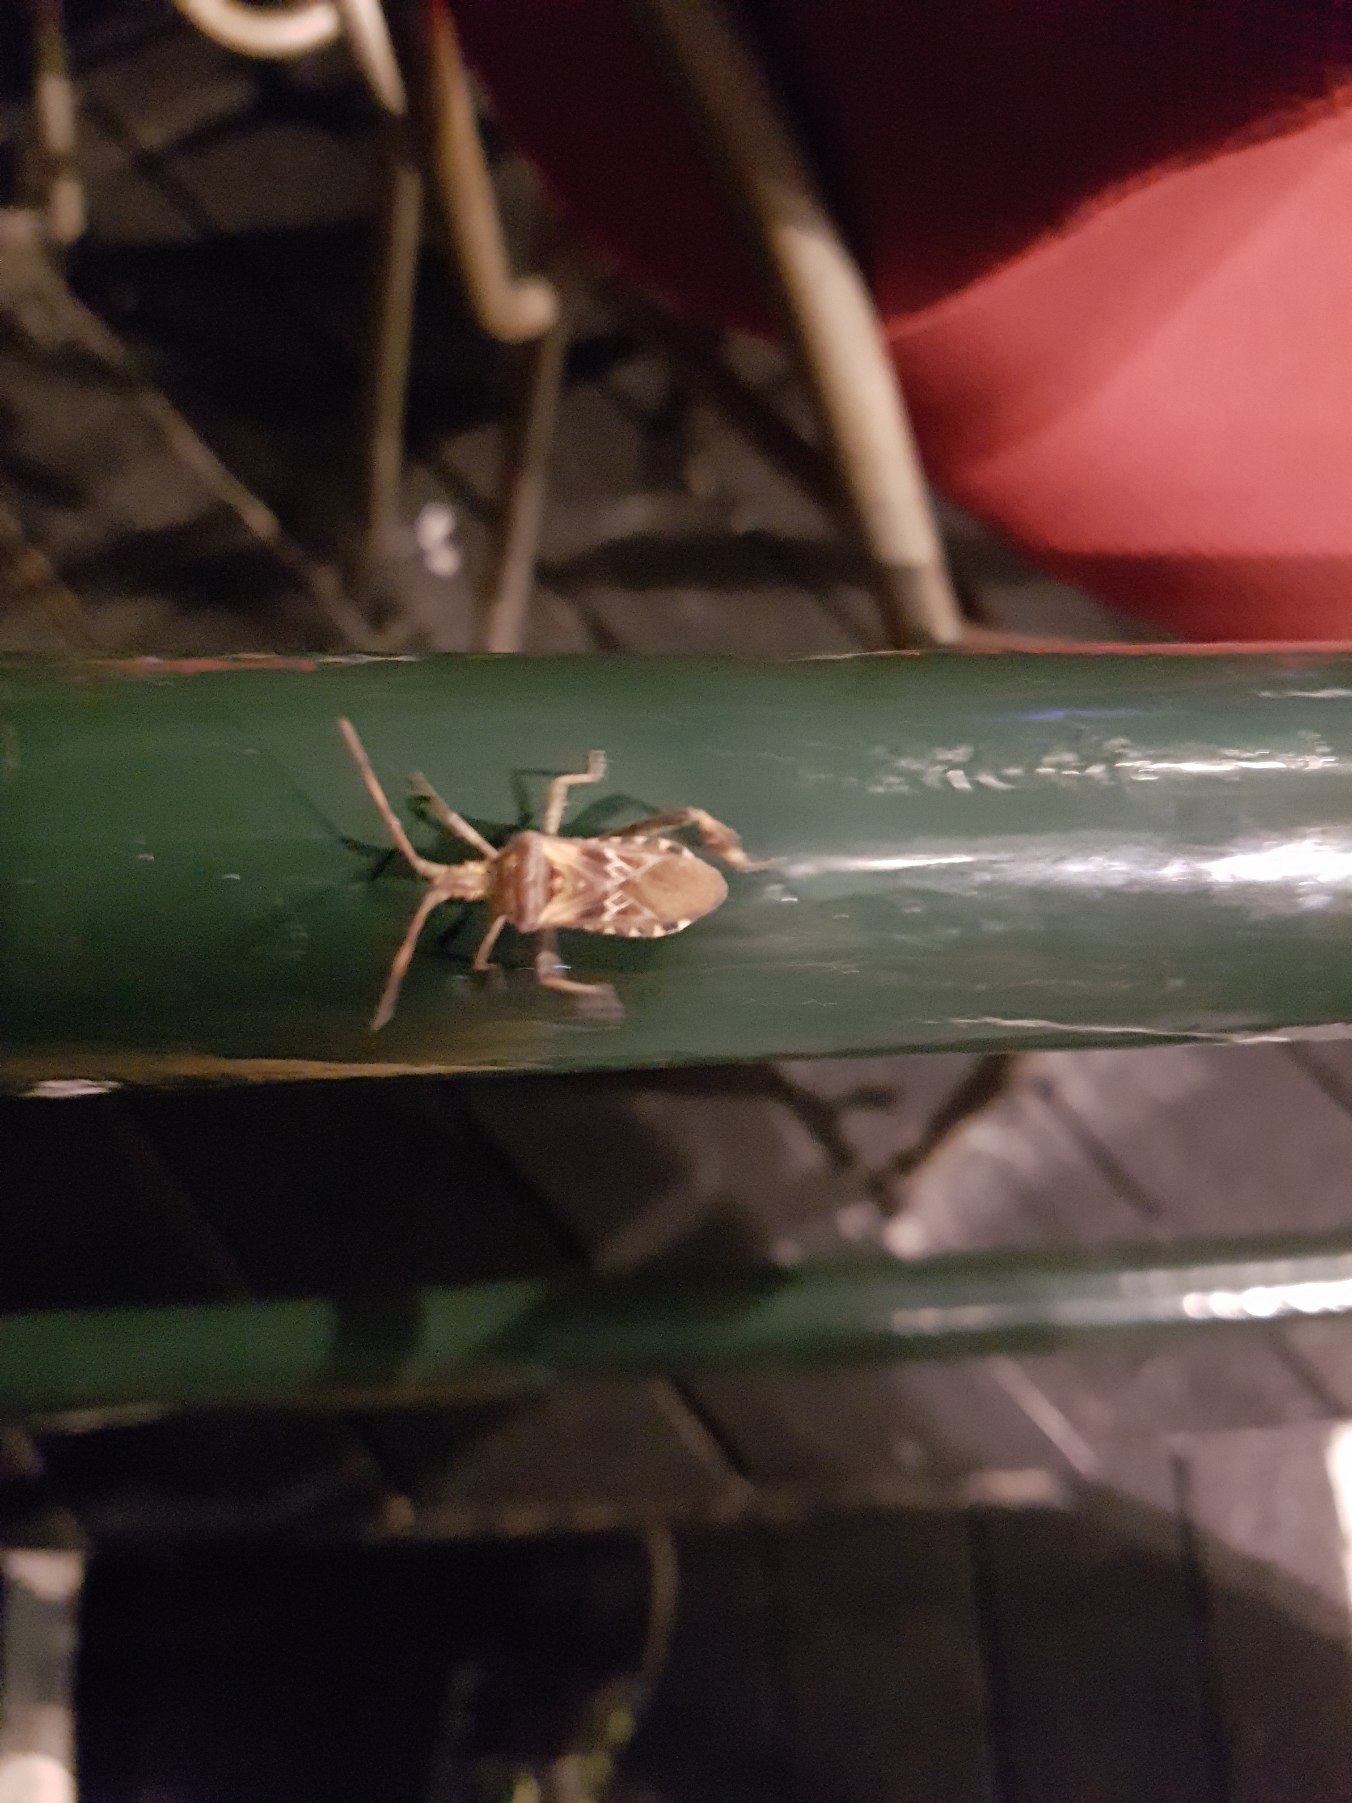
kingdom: Animalia
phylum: Arthropoda
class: Insecta
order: Hemiptera
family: Coreidae
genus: Leptoglossus
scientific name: Leptoglossus occidentalis
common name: Amerikansk fyrretæge
